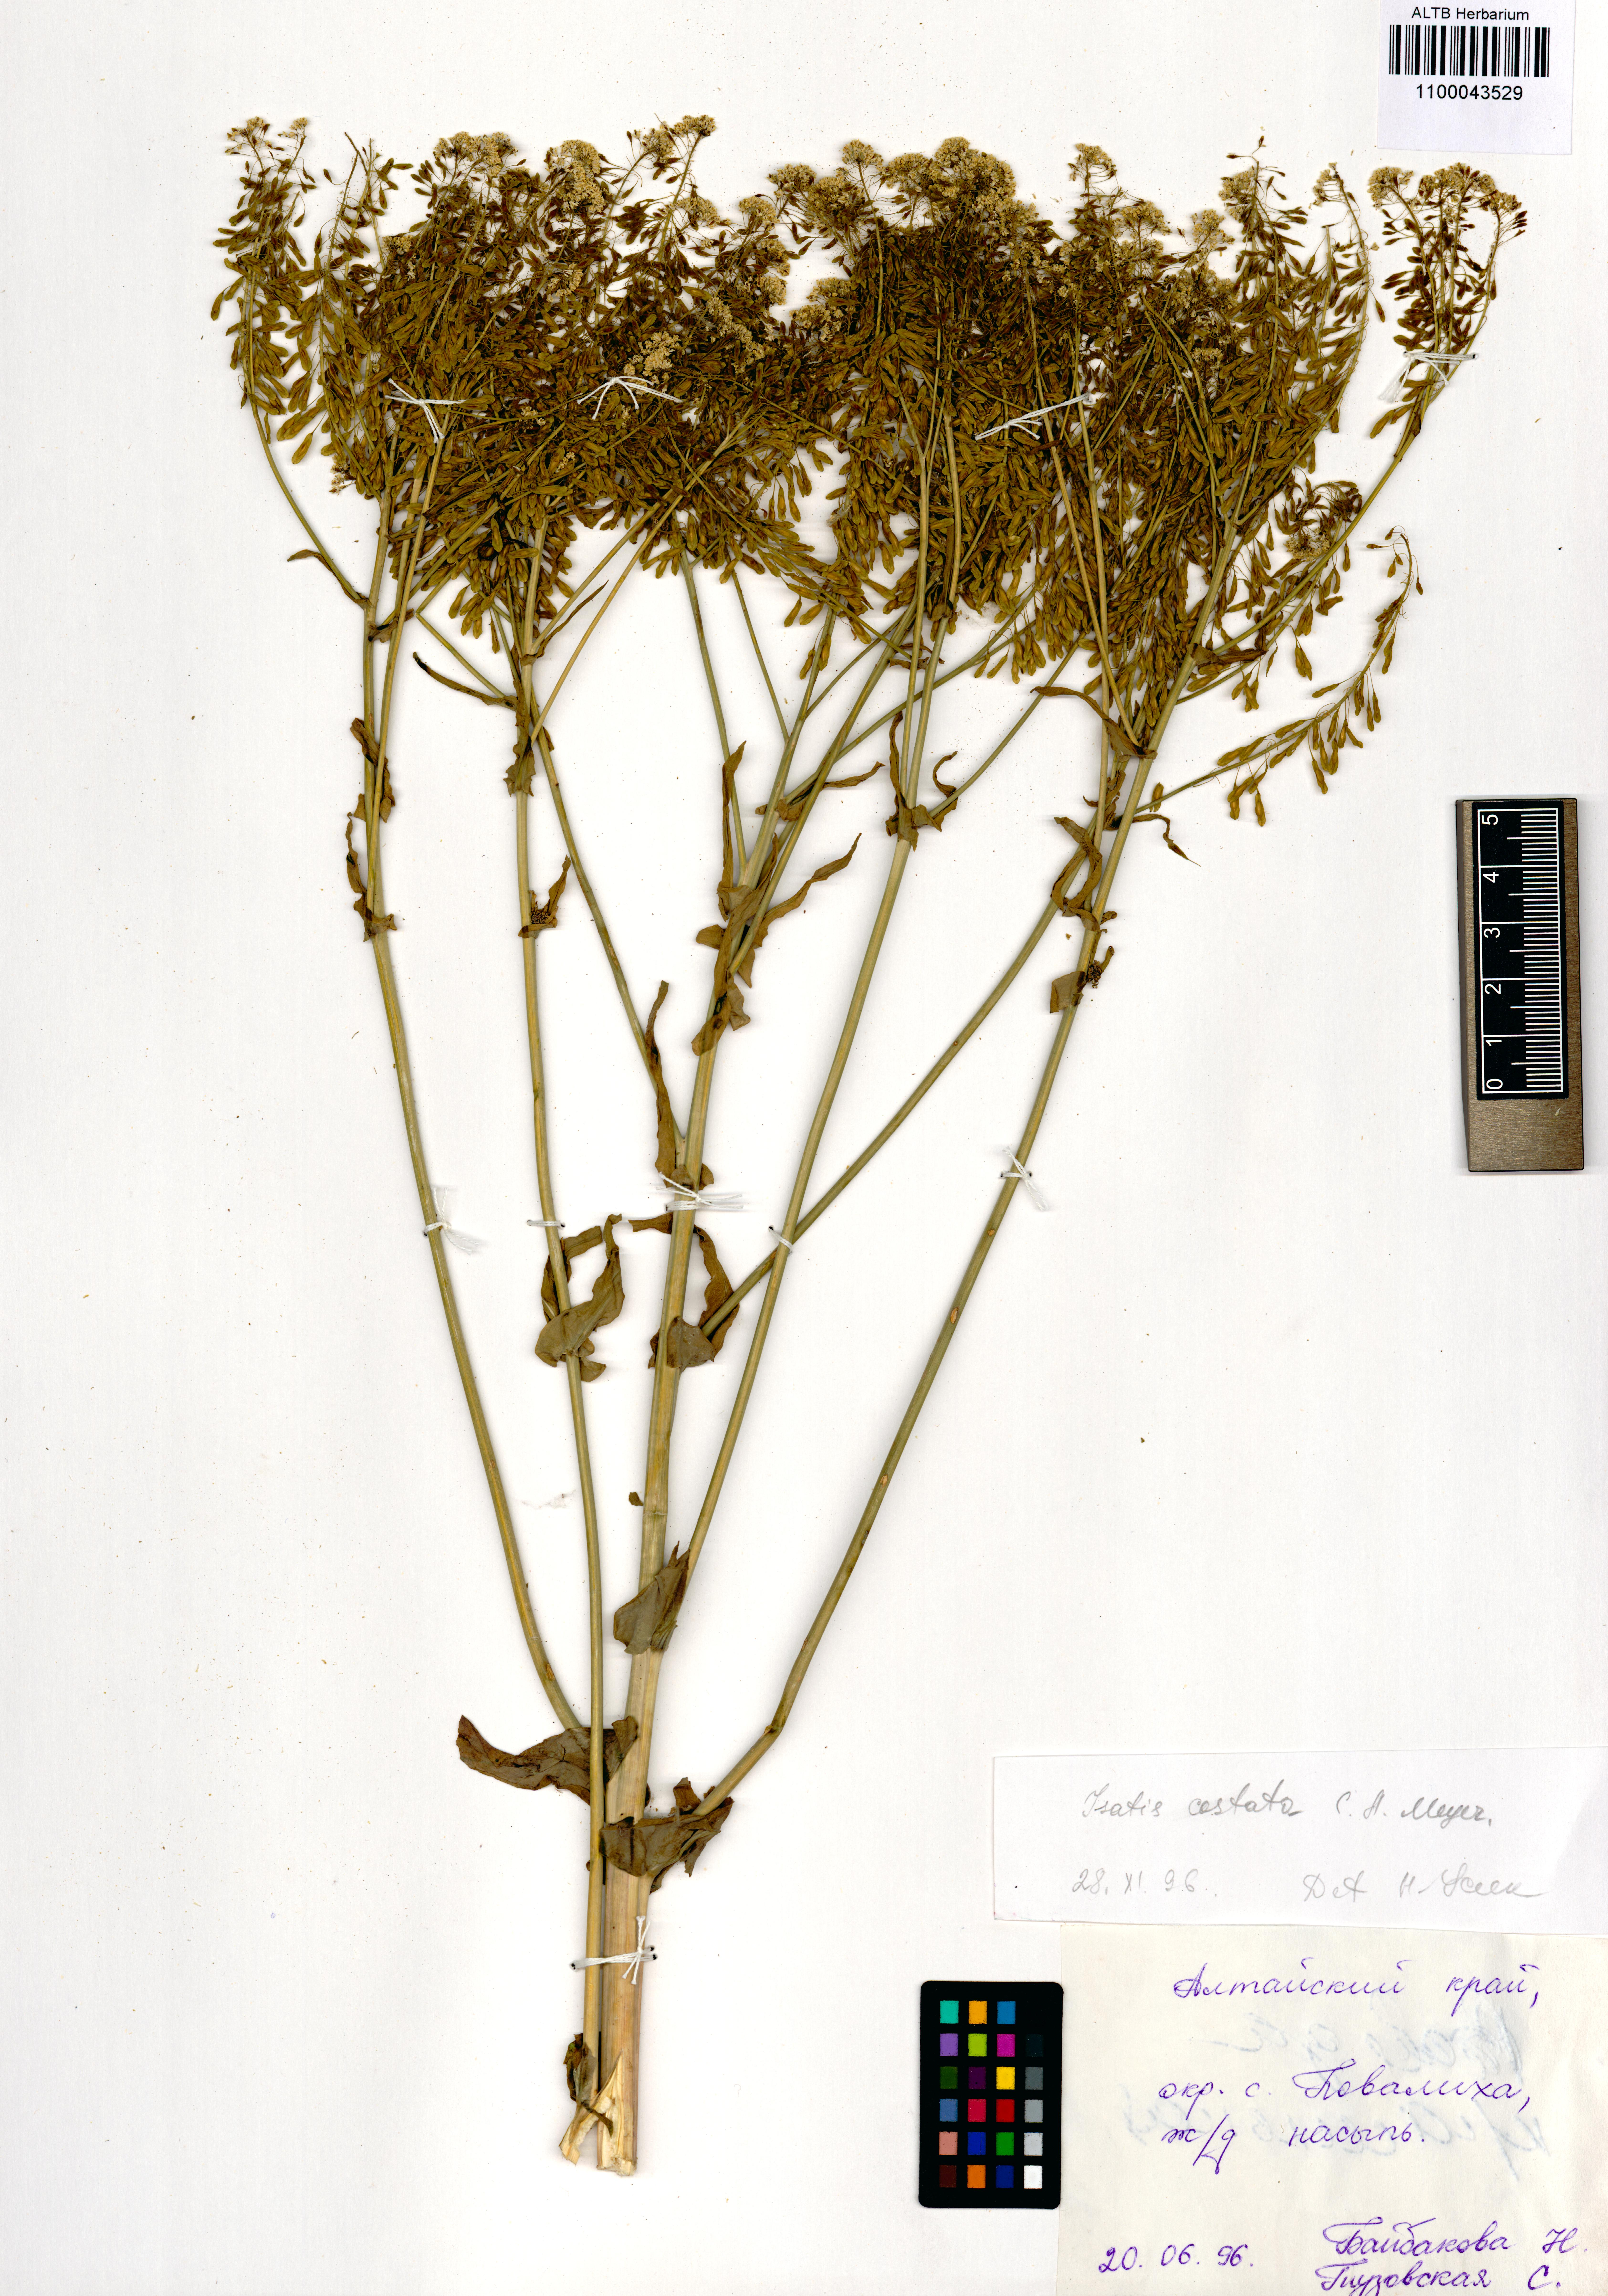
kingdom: Plantae
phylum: Tracheophyta
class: Magnoliopsida
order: Brassicales
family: Brassicaceae
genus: Isatis
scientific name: Isatis costata
